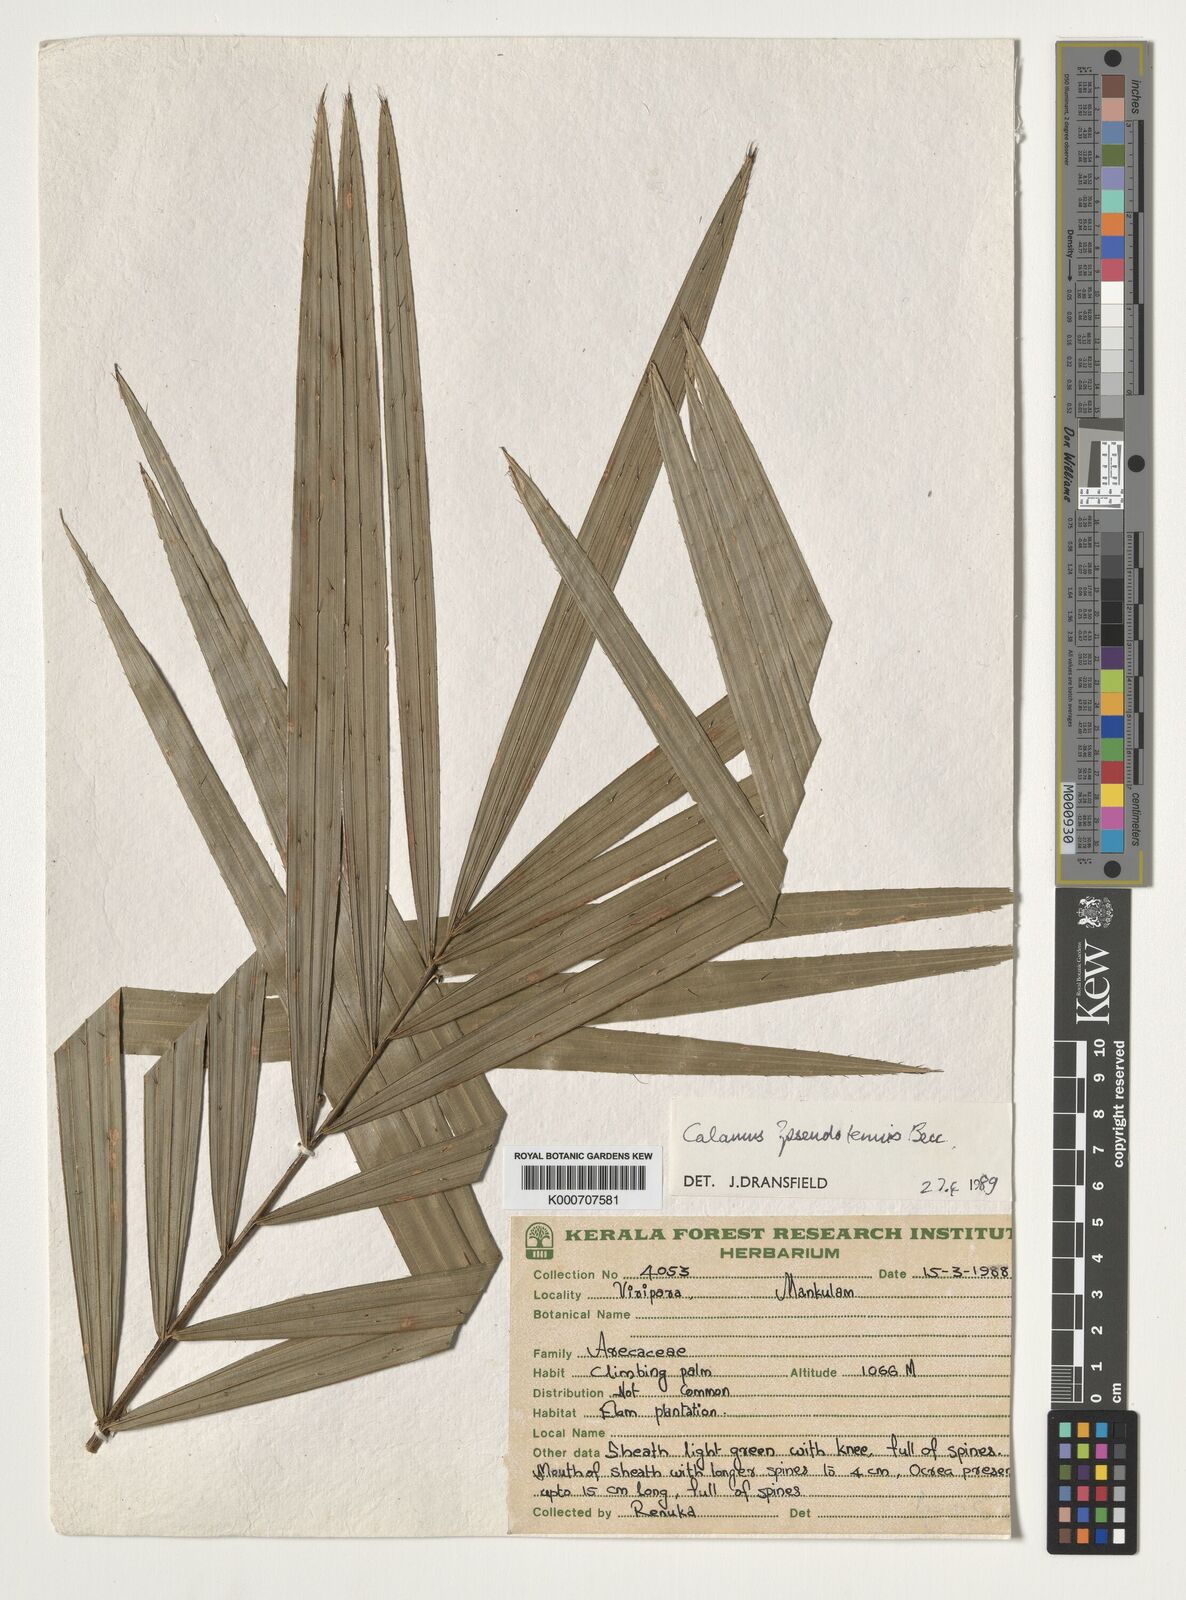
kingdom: Plantae
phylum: Tracheophyta
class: Liliopsida
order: Arecales
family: Arecaceae
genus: Calamus
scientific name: Calamus pseudotenuis
